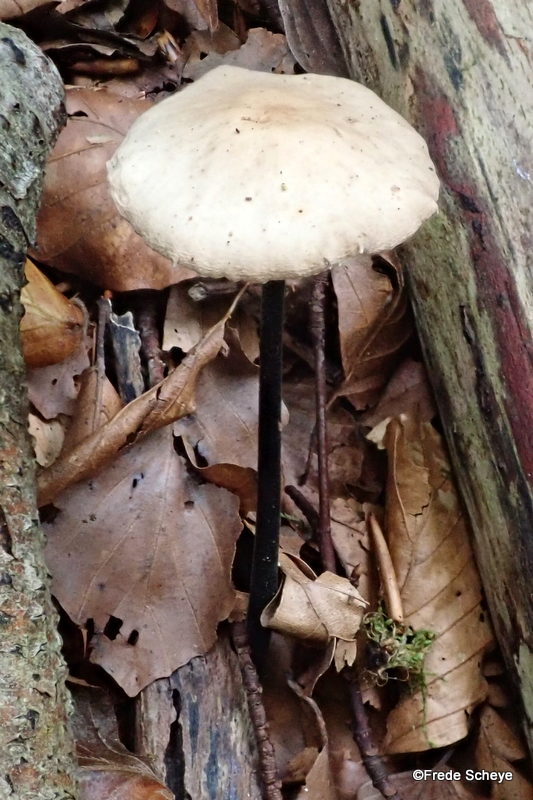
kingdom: Fungi
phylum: Basidiomycota
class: Agaricomycetes
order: Agaricales
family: Omphalotaceae
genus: Mycetinis
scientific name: Mycetinis alliaceus
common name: stor løghat
